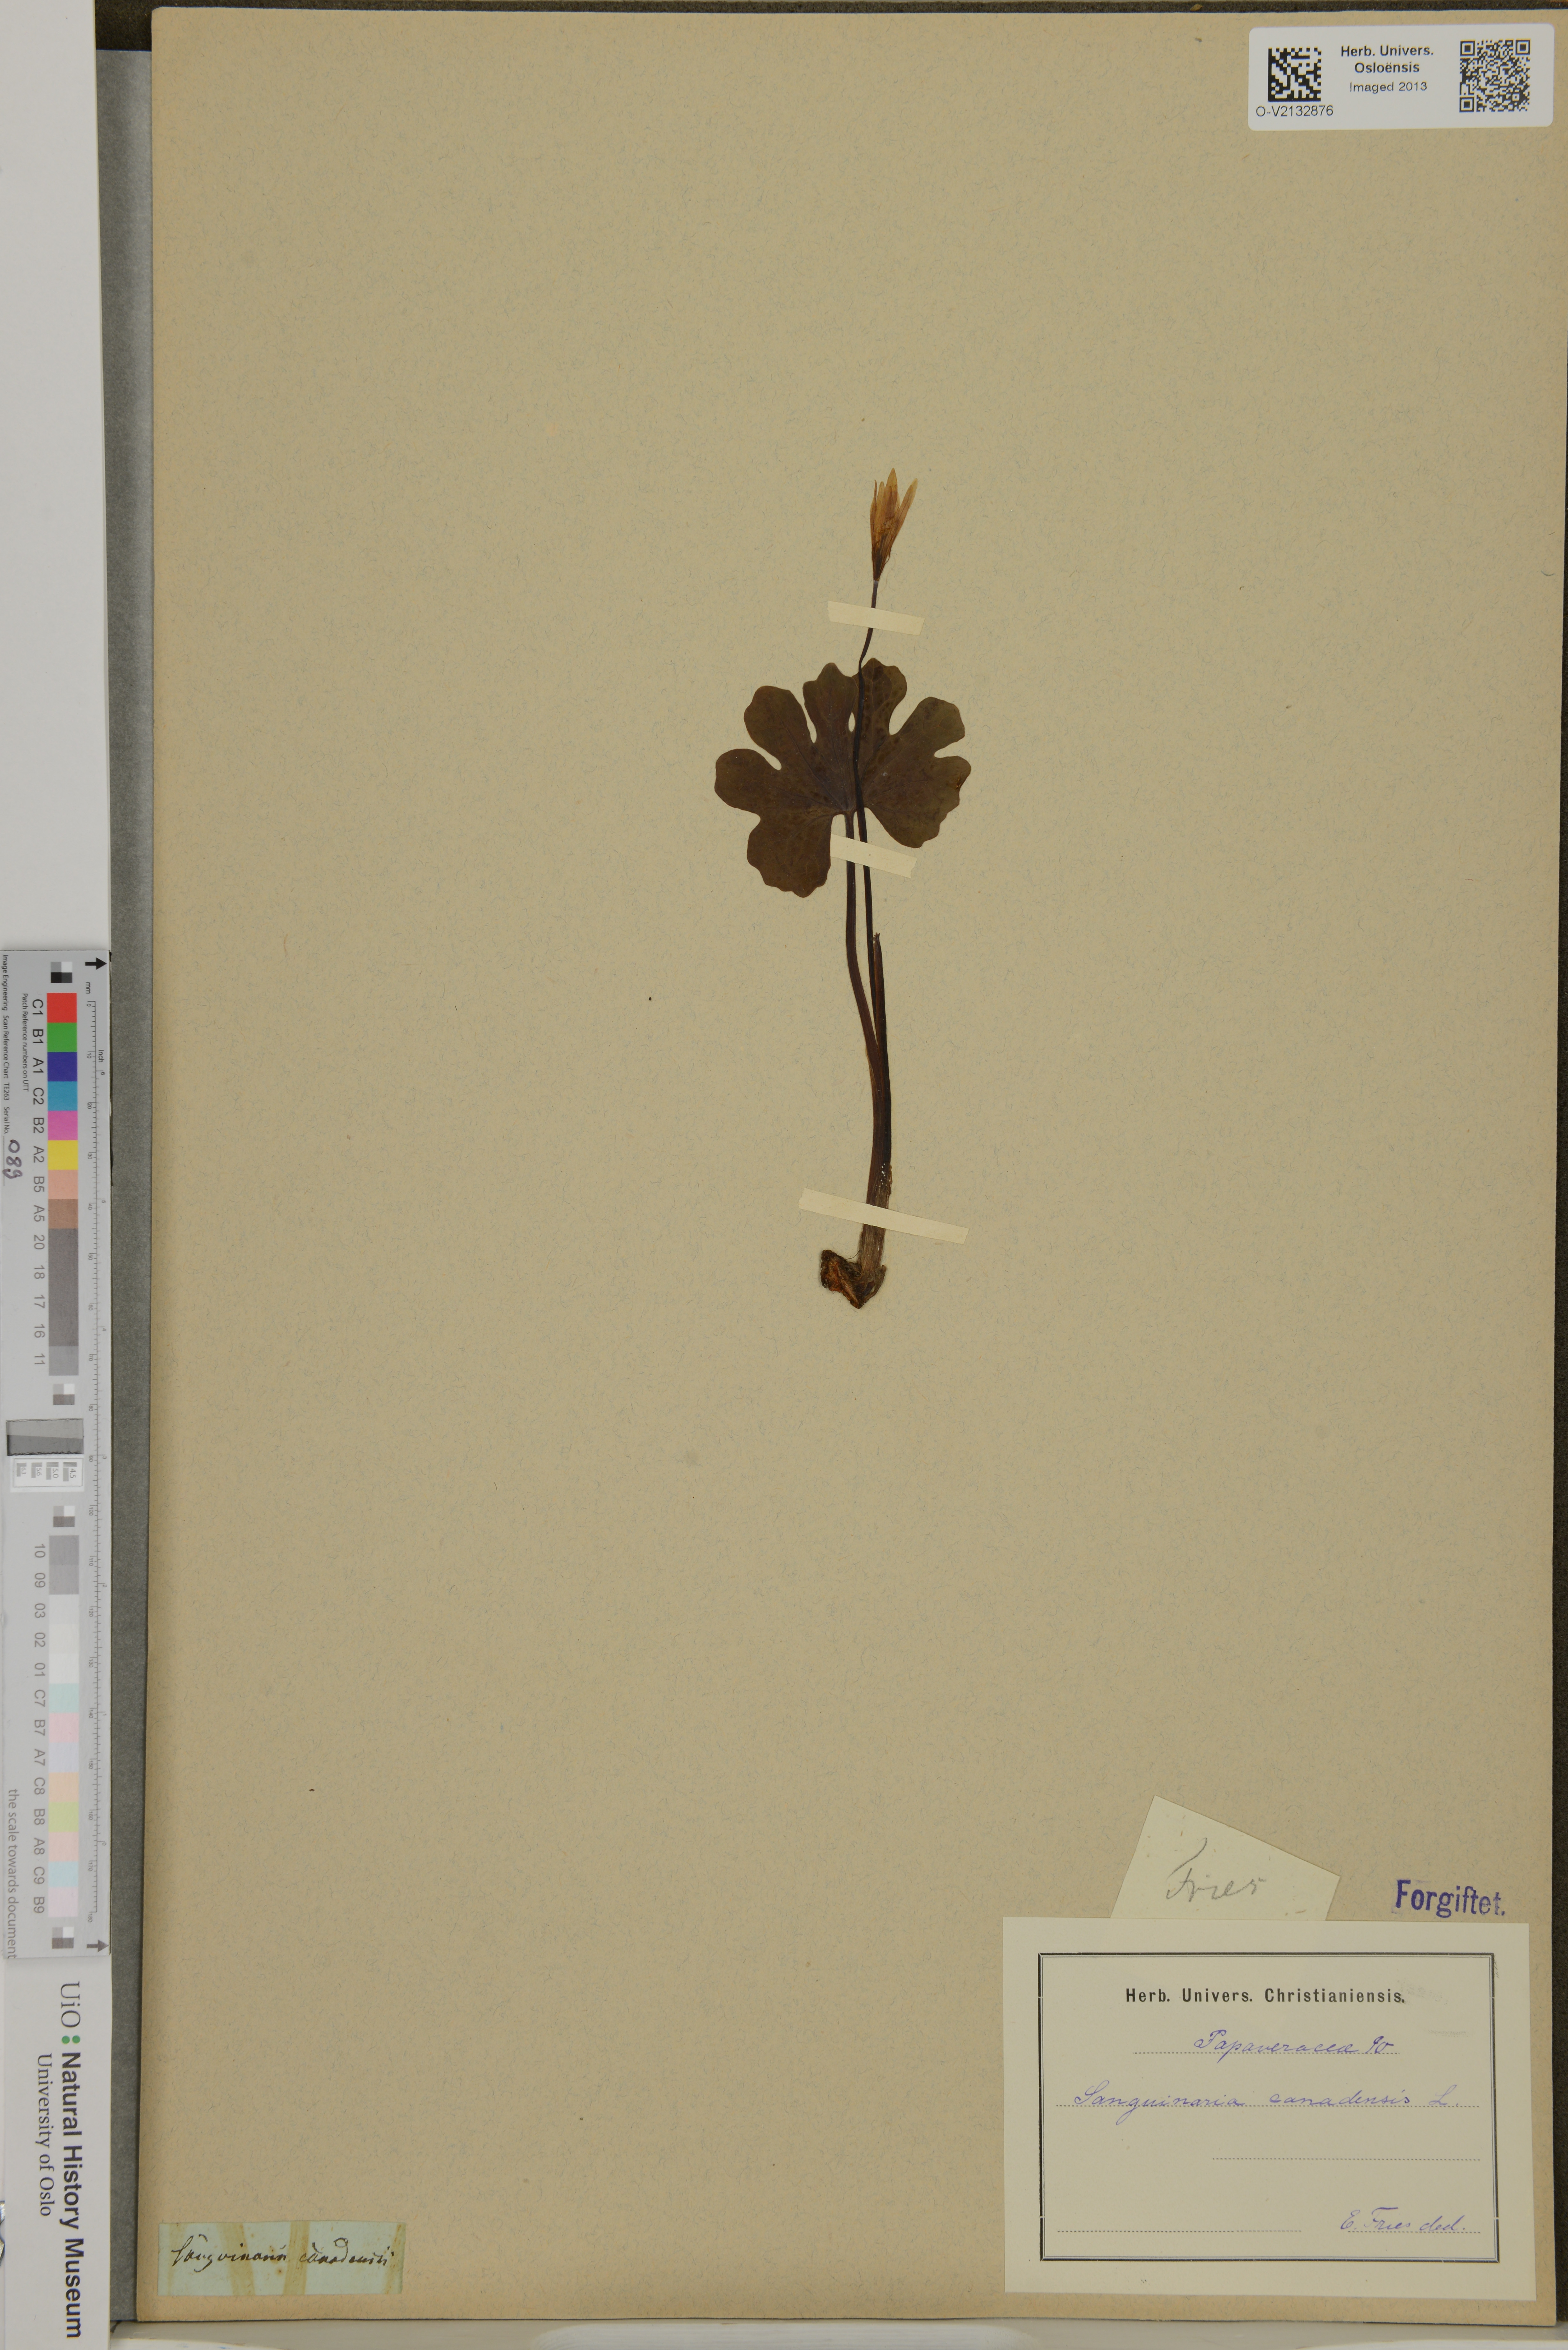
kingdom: Plantae
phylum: Tracheophyta
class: Magnoliopsida
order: Ranunculales
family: Papaveraceae
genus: Sanguinaria
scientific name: Sanguinaria canadensis
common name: Bloodroot
